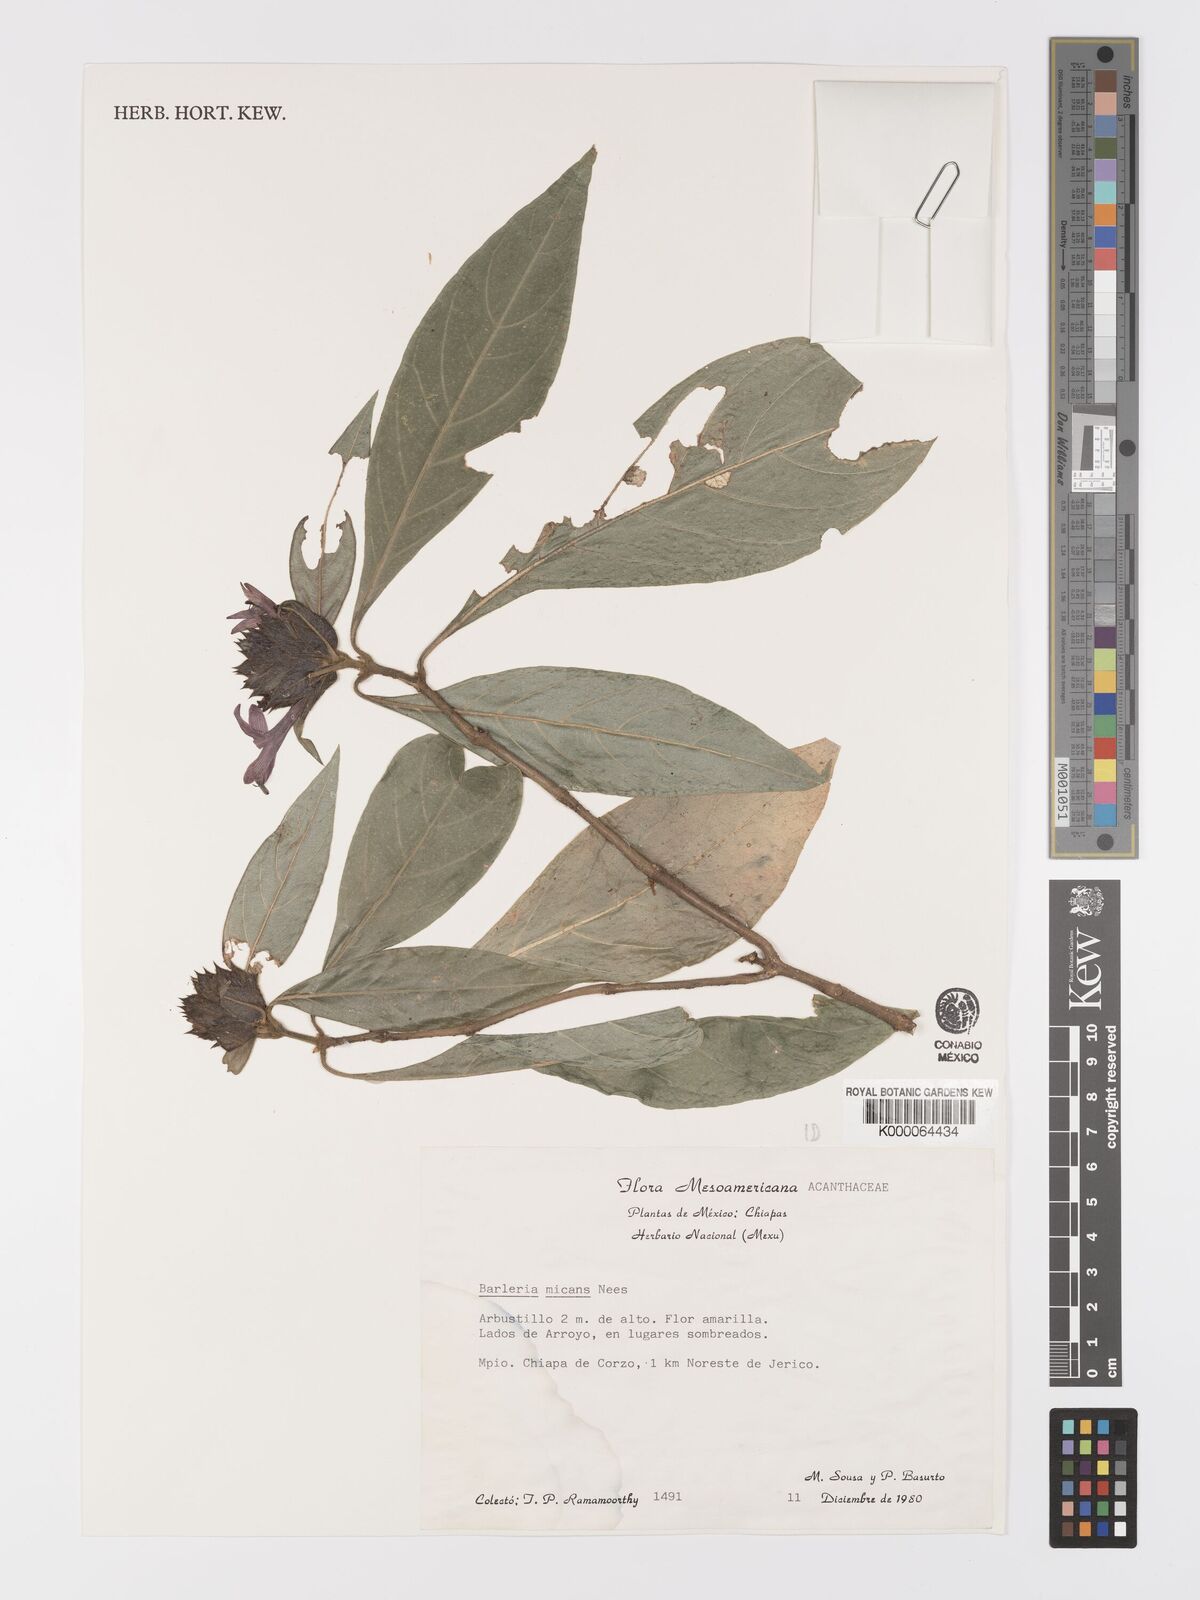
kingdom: Plantae
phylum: Tracheophyta
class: Magnoliopsida
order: Lamiales
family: Acanthaceae
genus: Barleria
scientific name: Barleria oenotheroides
